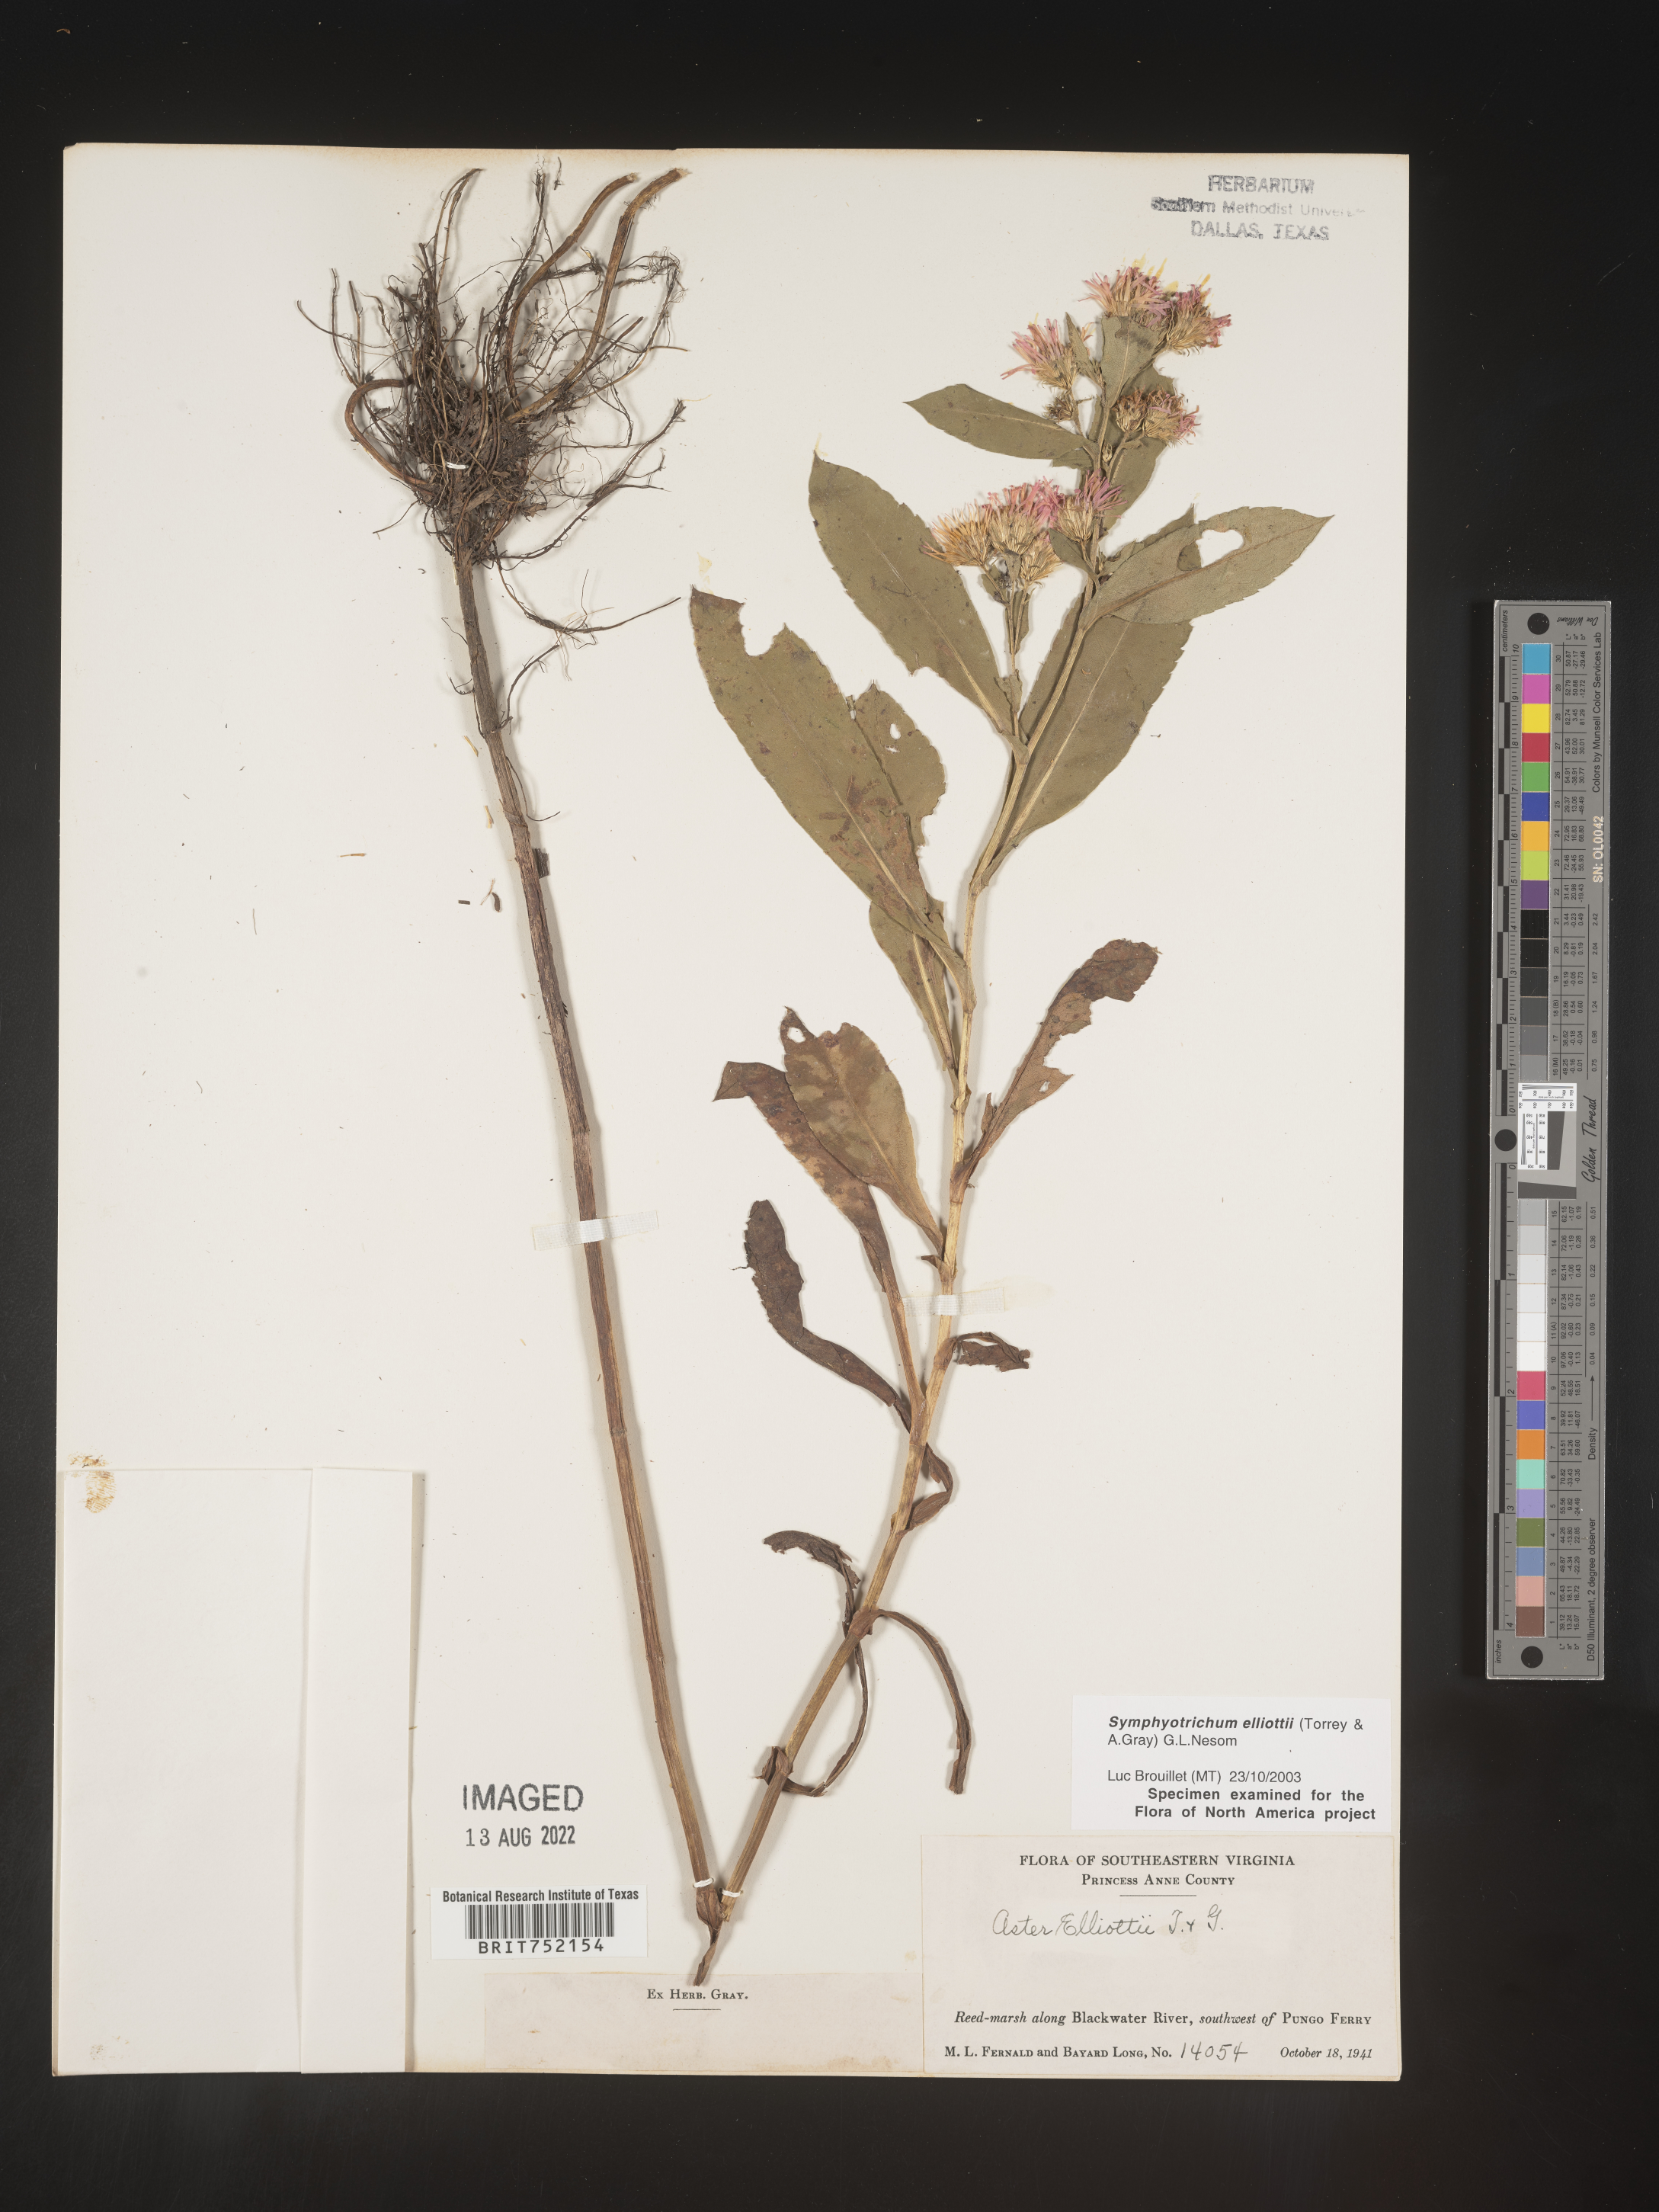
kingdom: Plantae
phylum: Tracheophyta
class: Magnoliopsida
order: Asterales
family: Asteraceae
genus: Symphyotrichum
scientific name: Symphyotrichum elliottii
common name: Southern swamp aster
